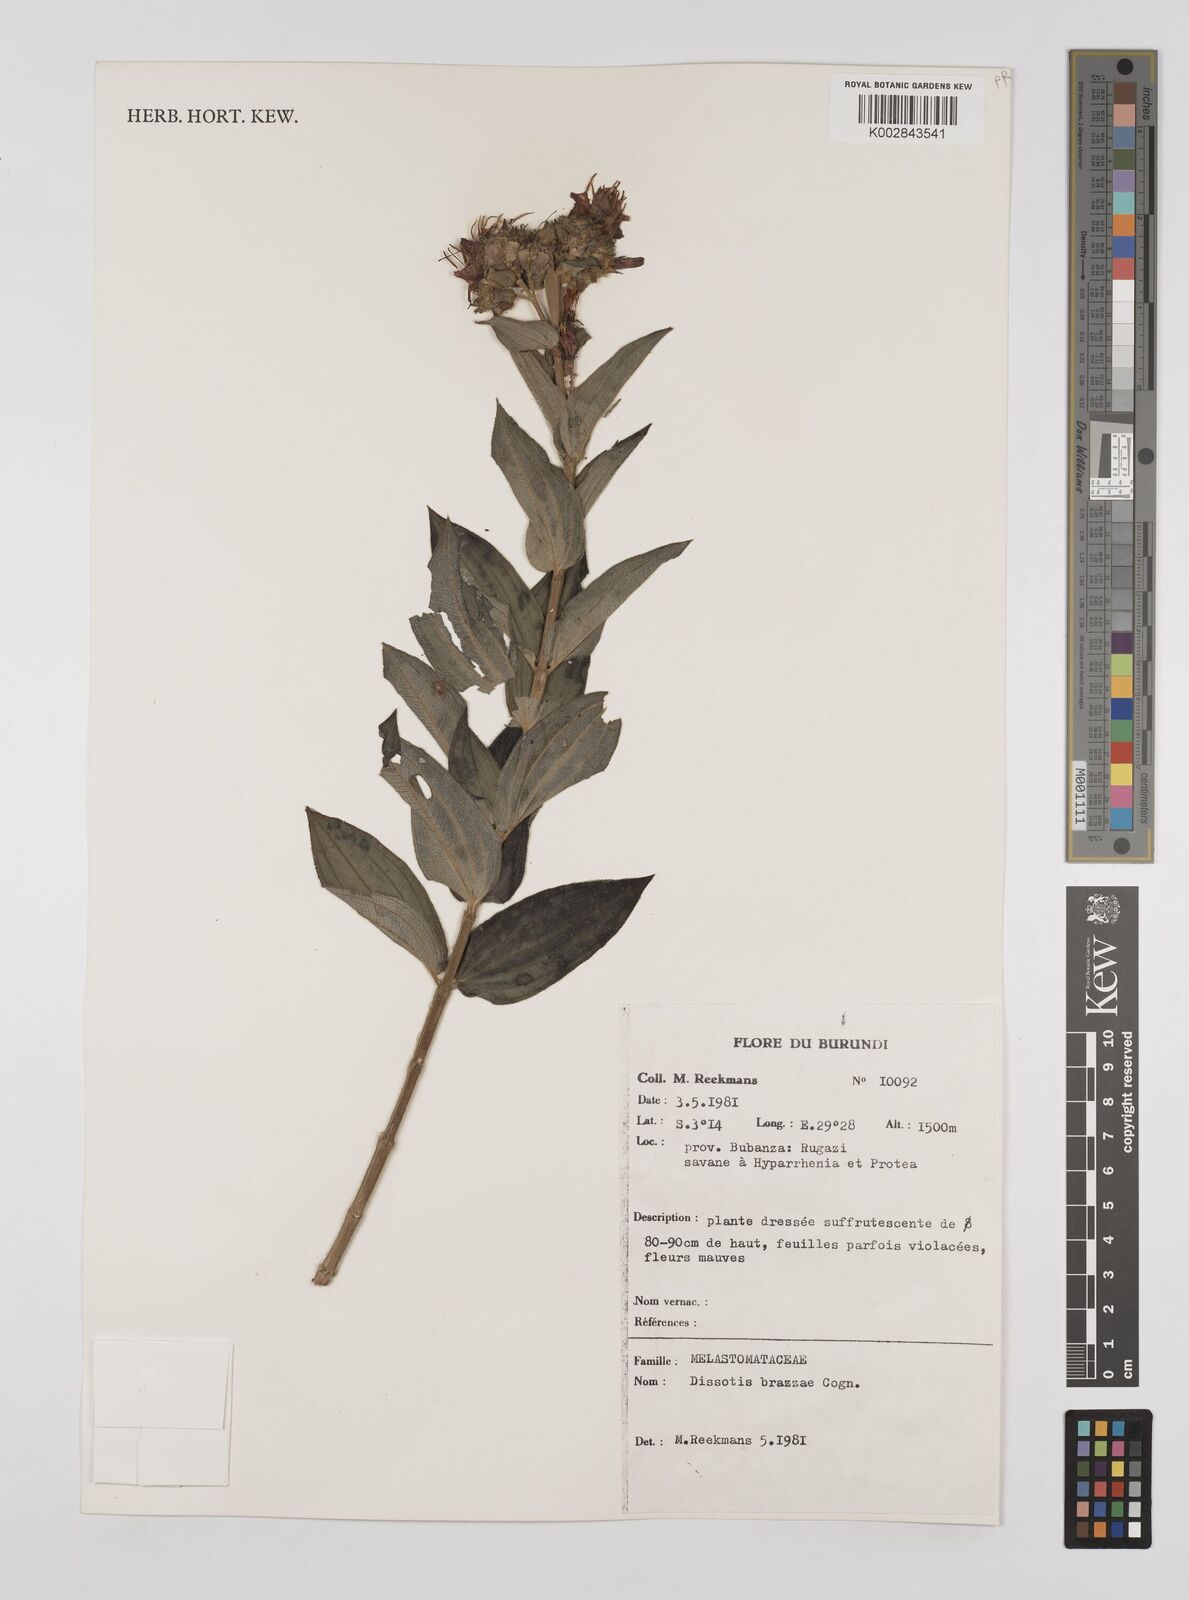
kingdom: Plantae
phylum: Tracheophyta
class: Magnoliopsida
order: Myrtales
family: Melastomataceae
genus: Dupineta
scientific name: Dupineta brazzae
